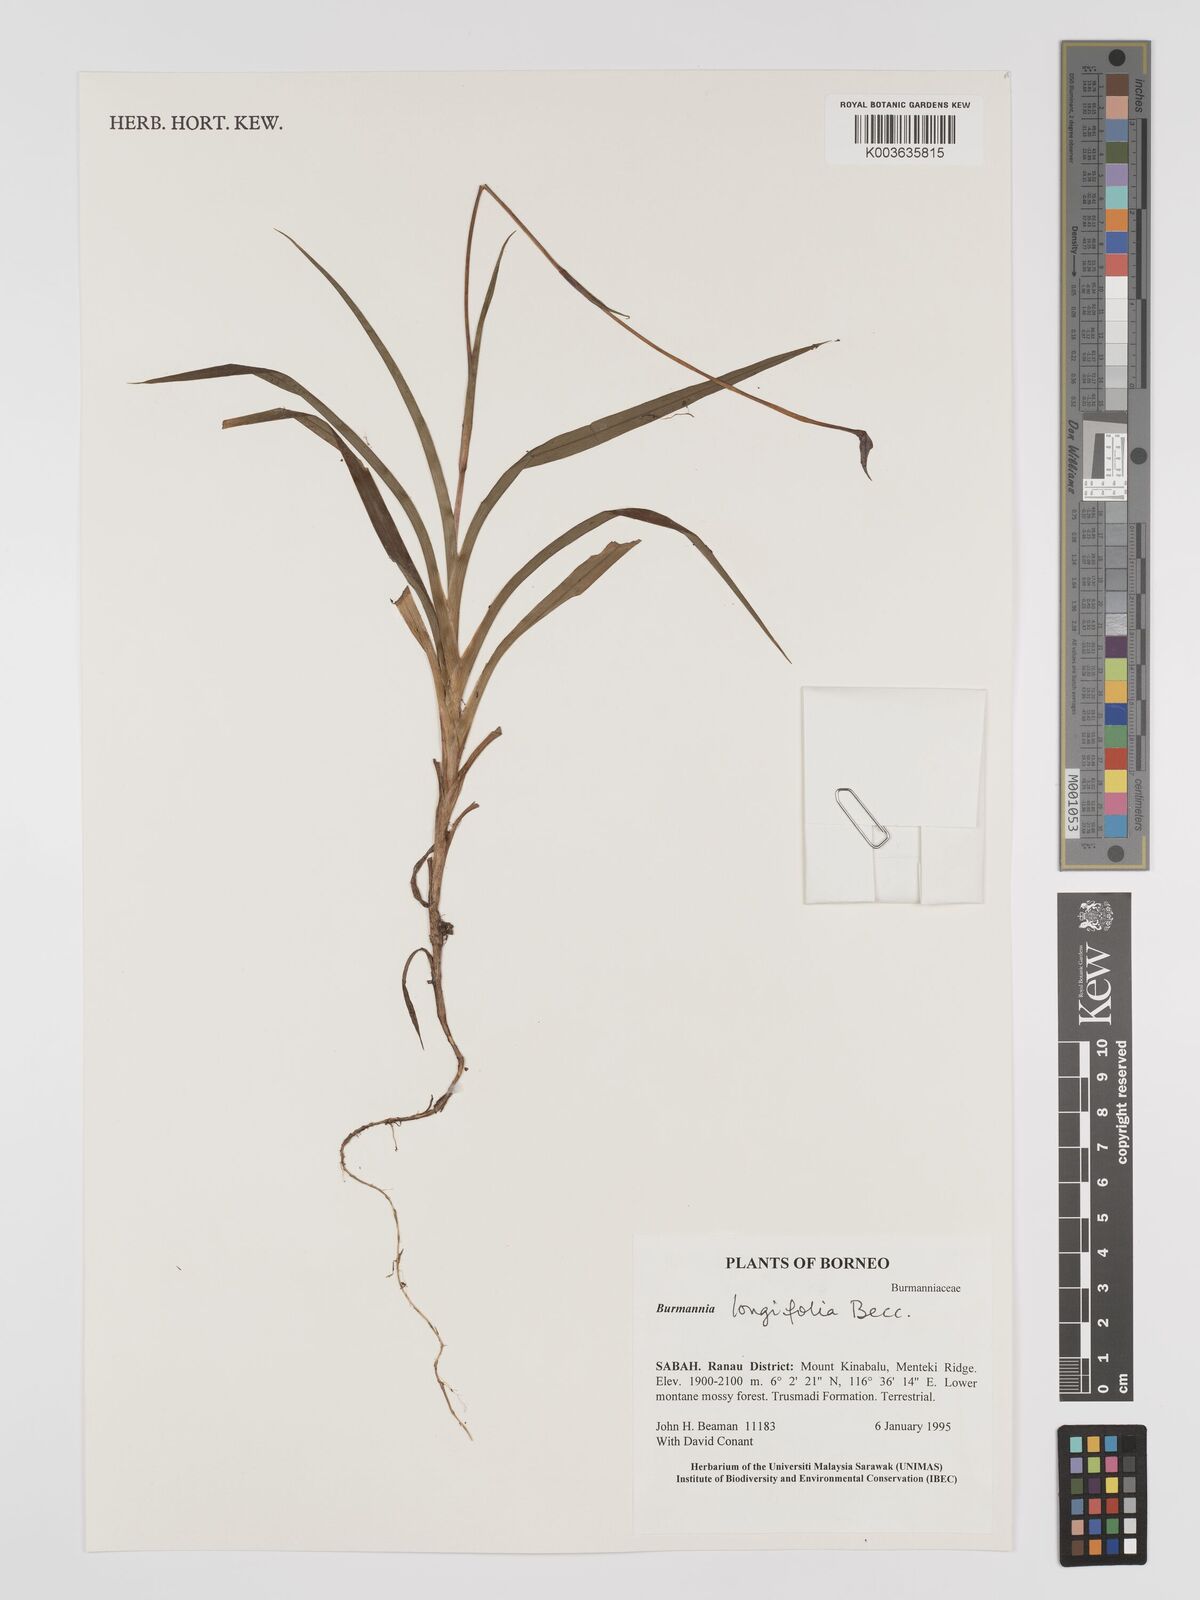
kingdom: Plantae
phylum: Tracheophyta
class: Liliopsida
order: Dioscoreales
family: Burmanniaceae
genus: Burmannia
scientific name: Burmannia longifolia
